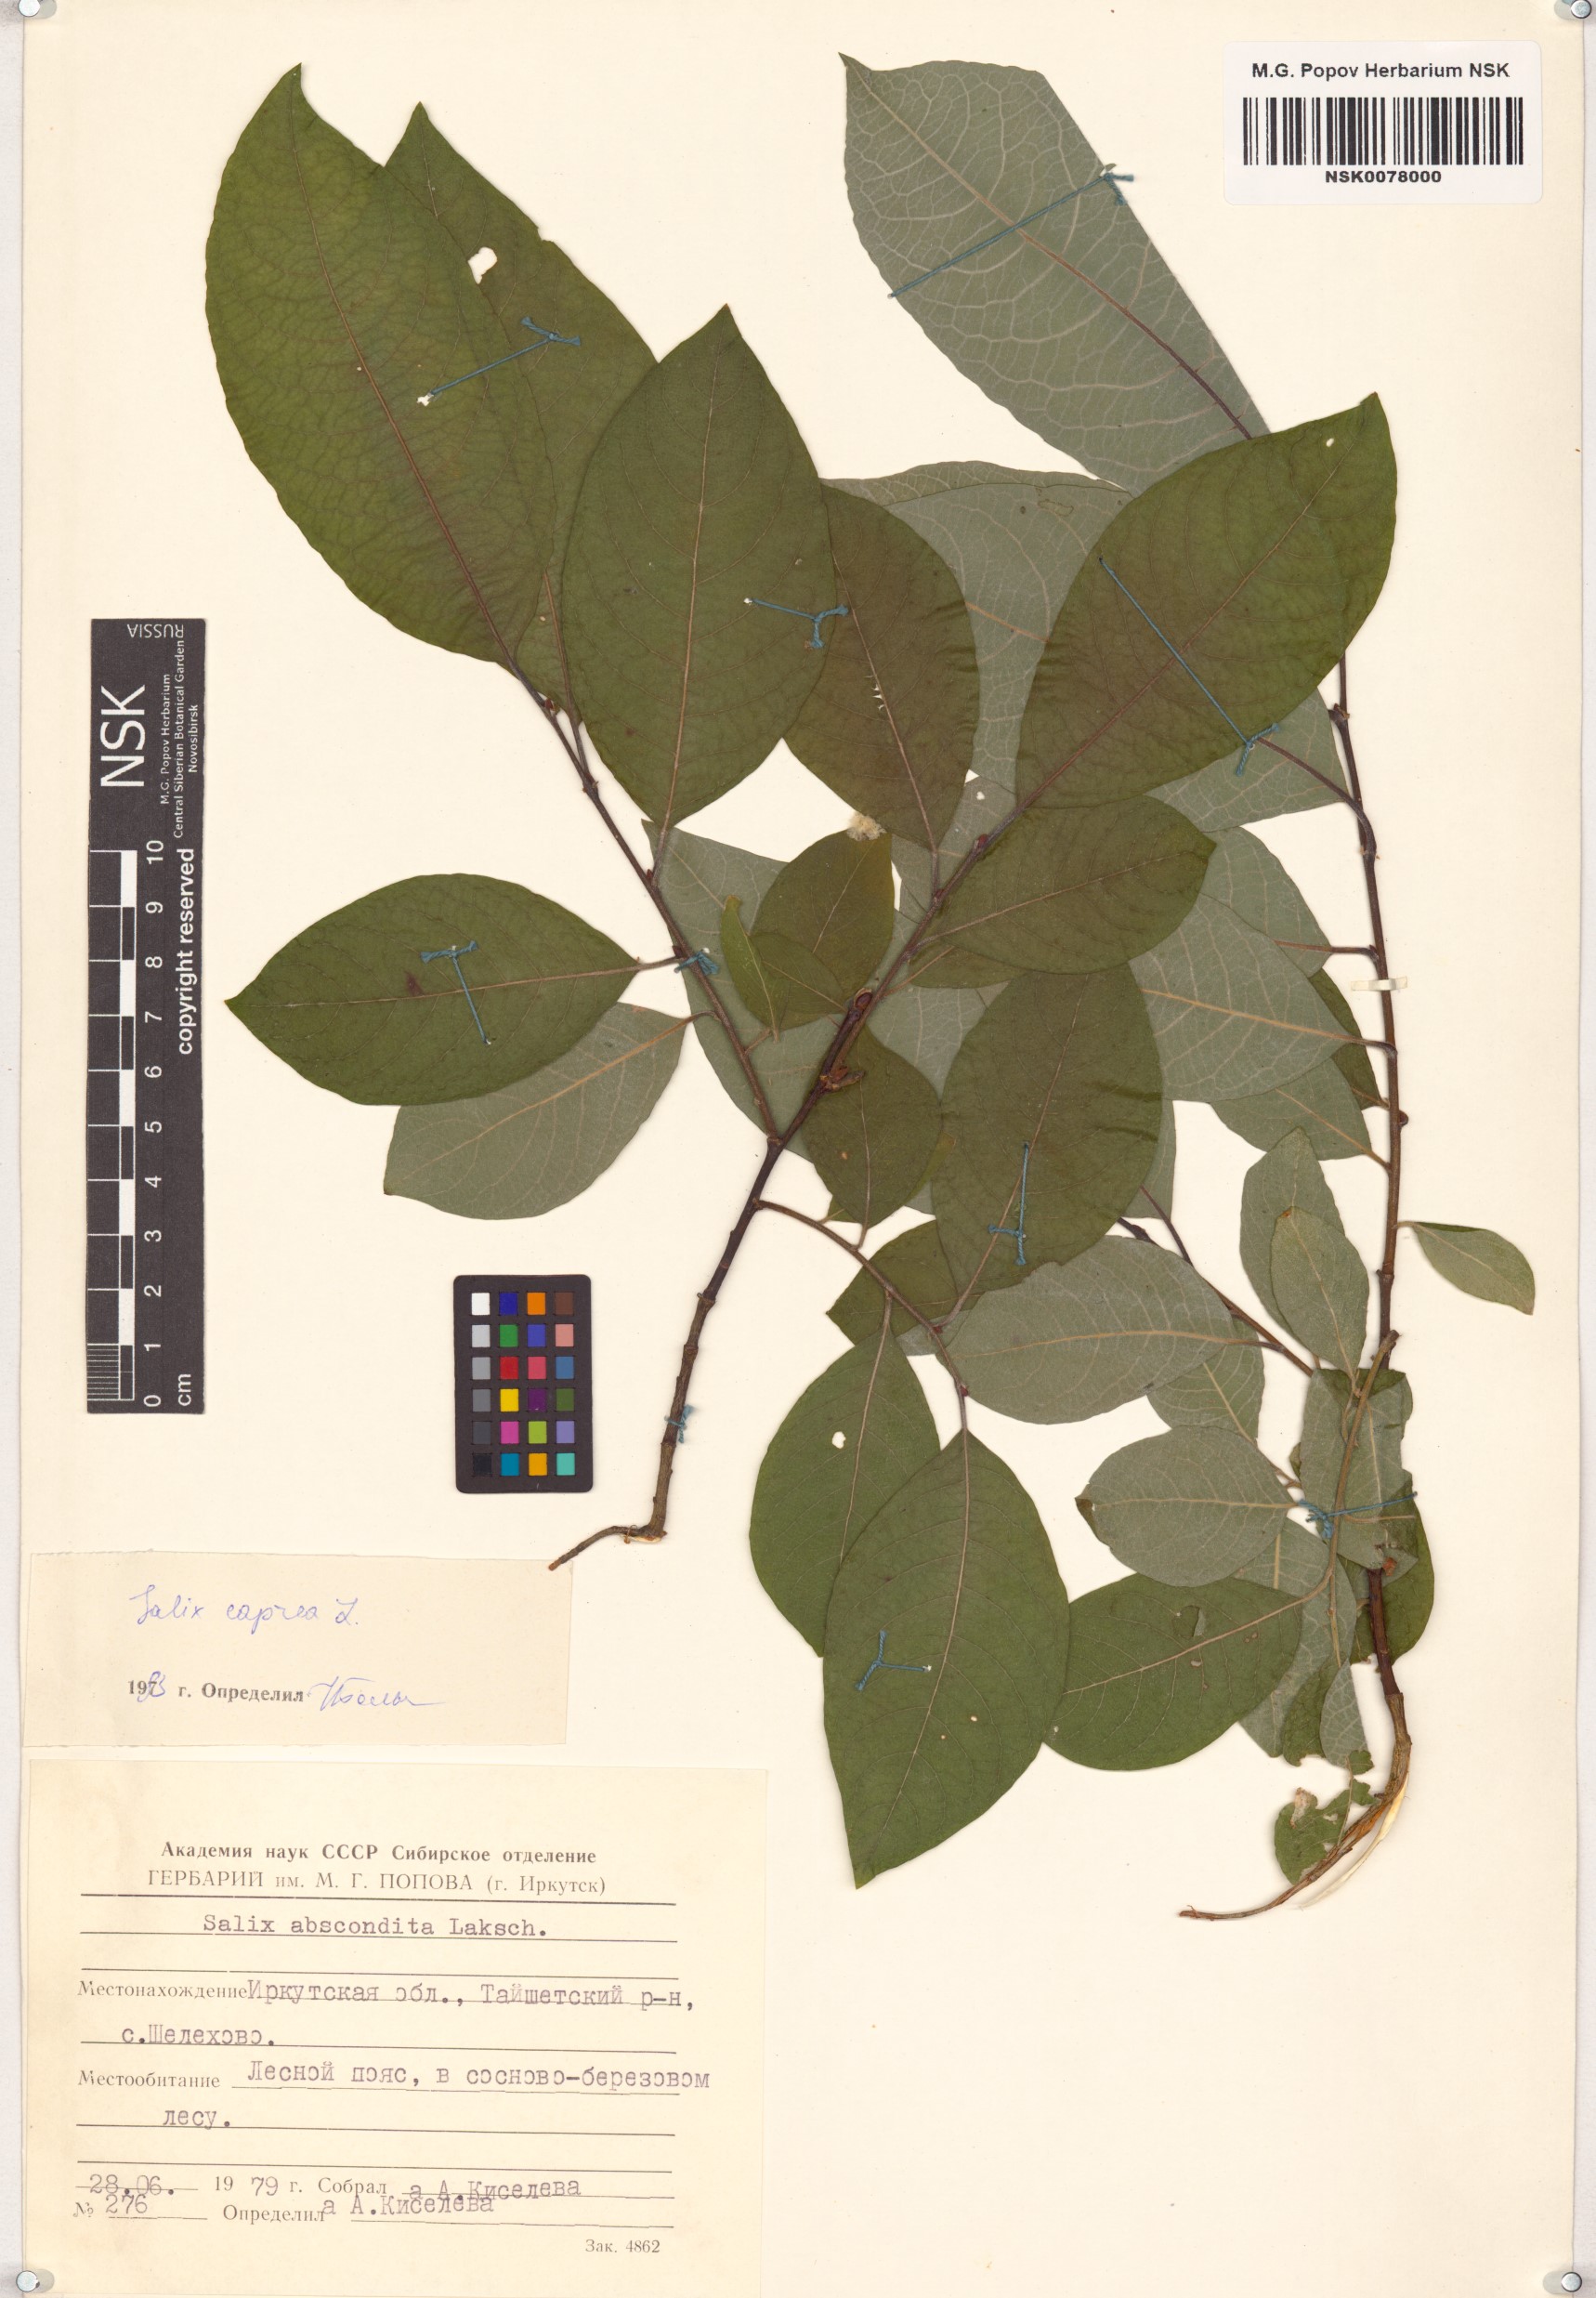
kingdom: Plantae
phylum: Tracheophyta
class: Magnoliopsida
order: Malpighiales
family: Salicaceae
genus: Salix
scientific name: Salix caprea
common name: Goat willow
